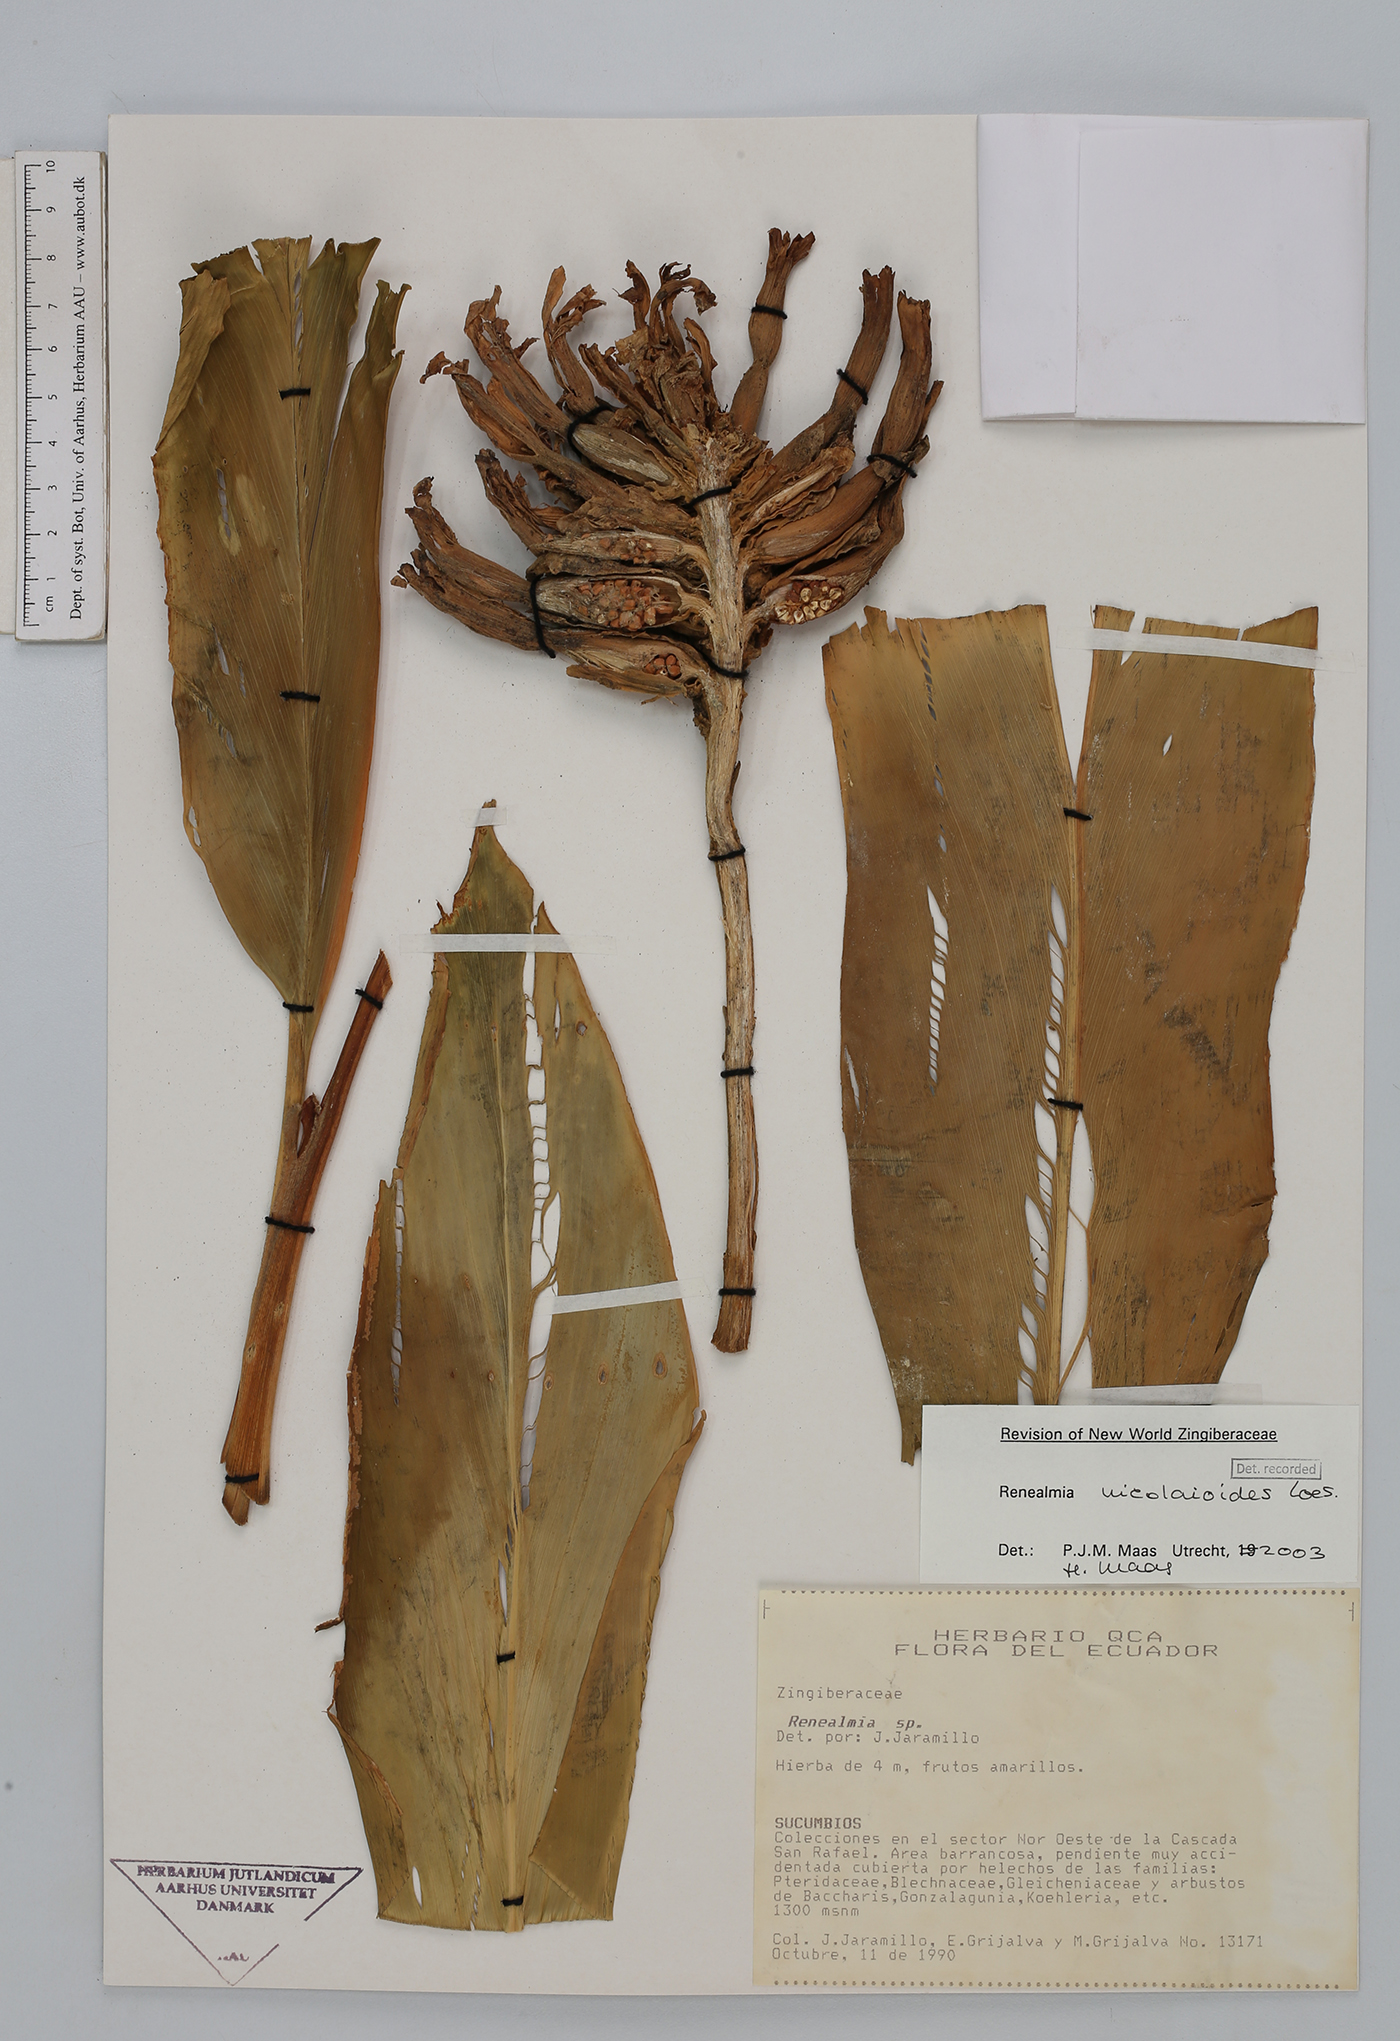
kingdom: Plantae
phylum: Tracheophyta
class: Liliopsida
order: Zingiberales
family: Zingiberaceae
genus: Renealmia
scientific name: Renealmia nicolaioides
